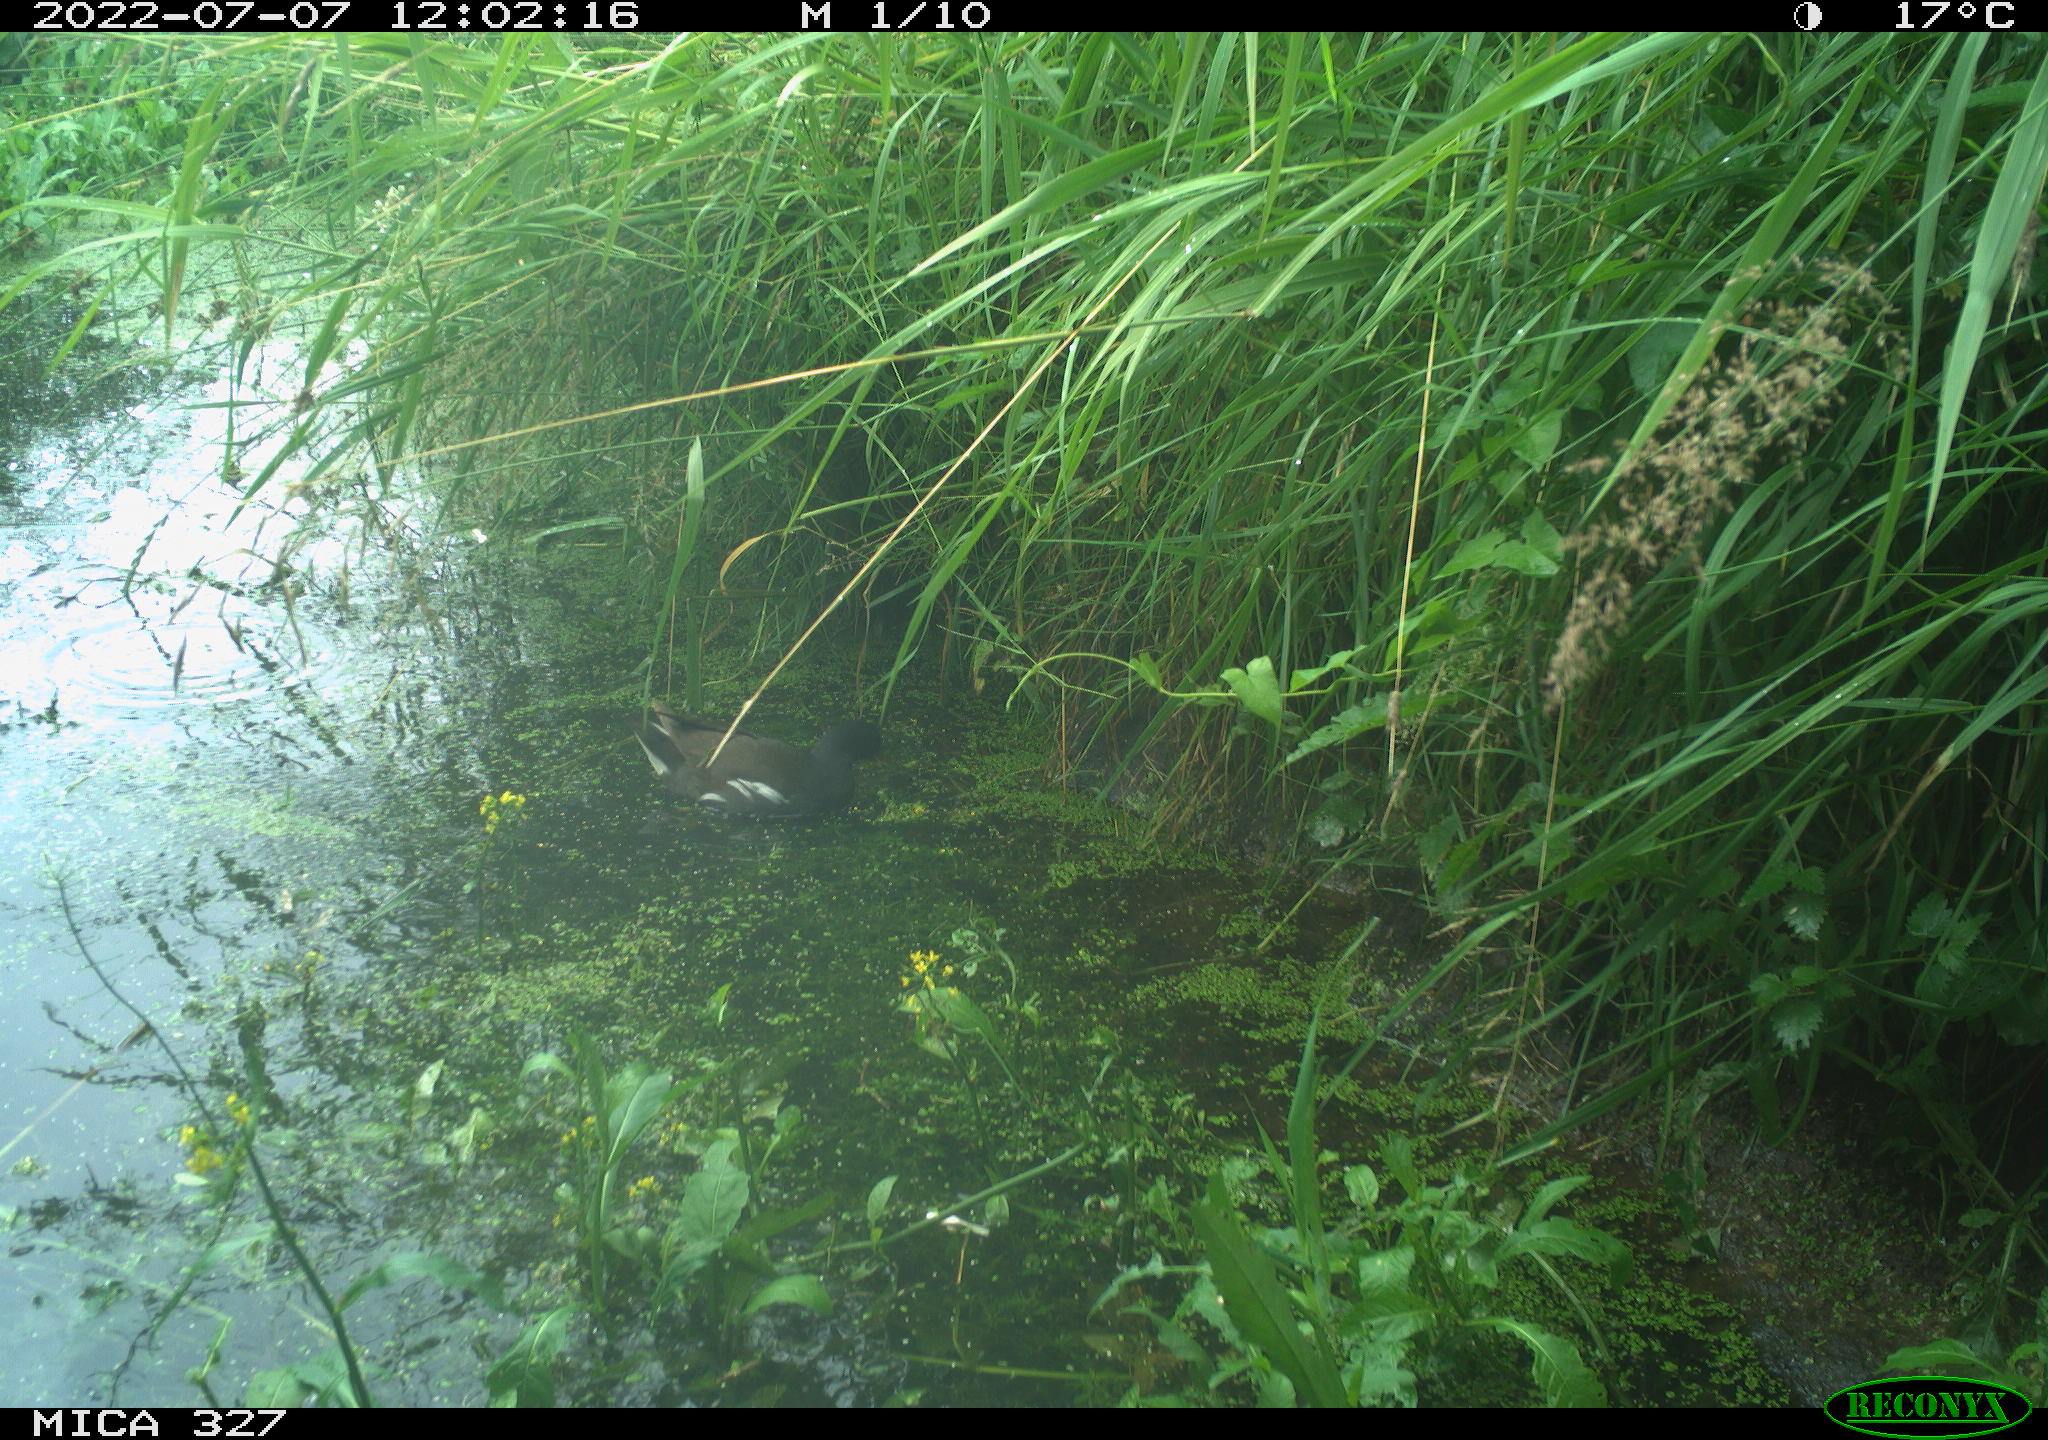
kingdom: Animalia
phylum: Chordata
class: Aves
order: Gruiformes
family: Rallidae
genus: Gallinula
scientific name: Gallinula chloropus
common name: Common moorhen
